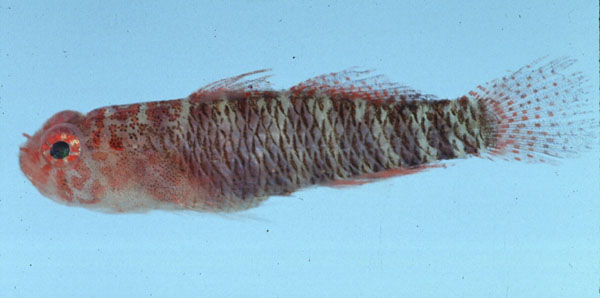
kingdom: Animalia
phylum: Chordata
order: Perciformes
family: Gobiidae
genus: Eviota
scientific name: Eviota
